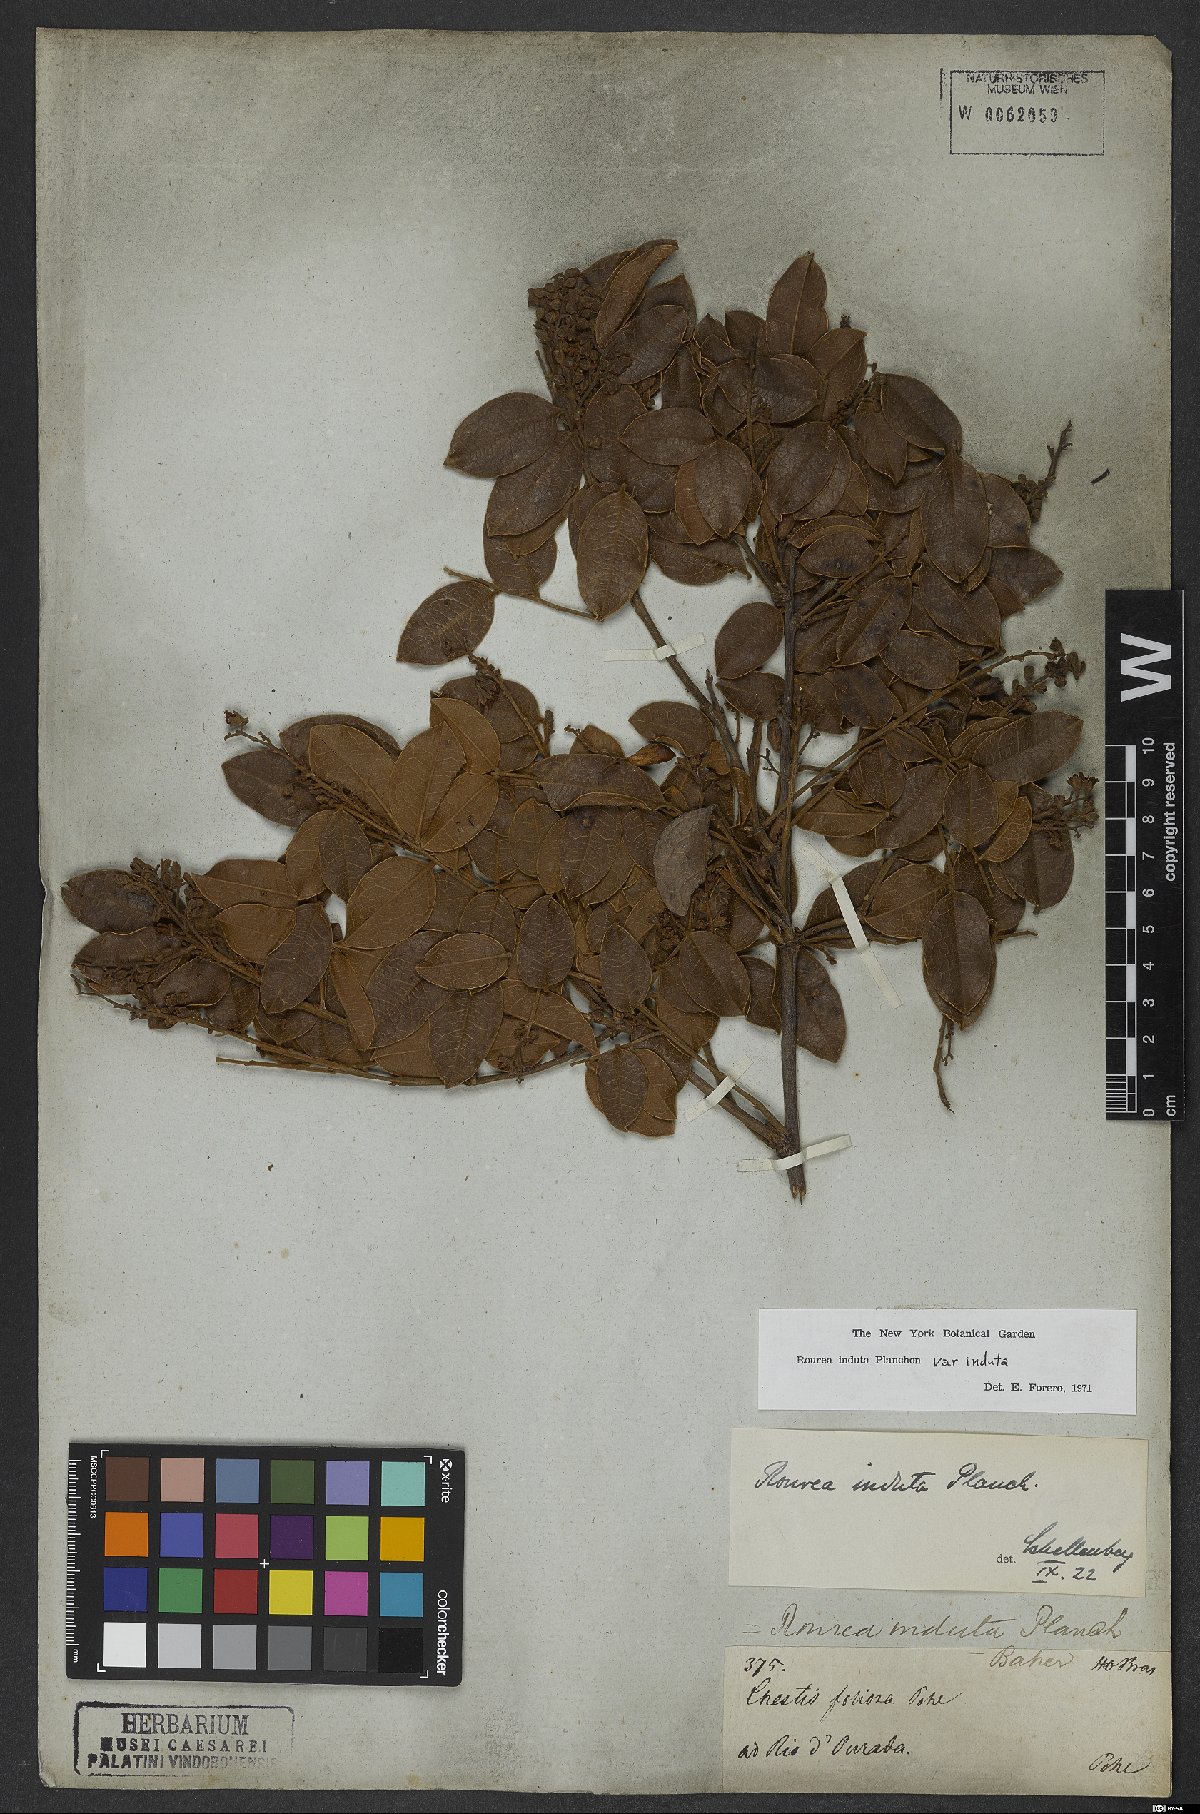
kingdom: Plantae
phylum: Tracheophyta
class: Magnoliopsida
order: Oxalidales
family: Connaraceae
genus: Rourea
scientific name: Rourea induta
